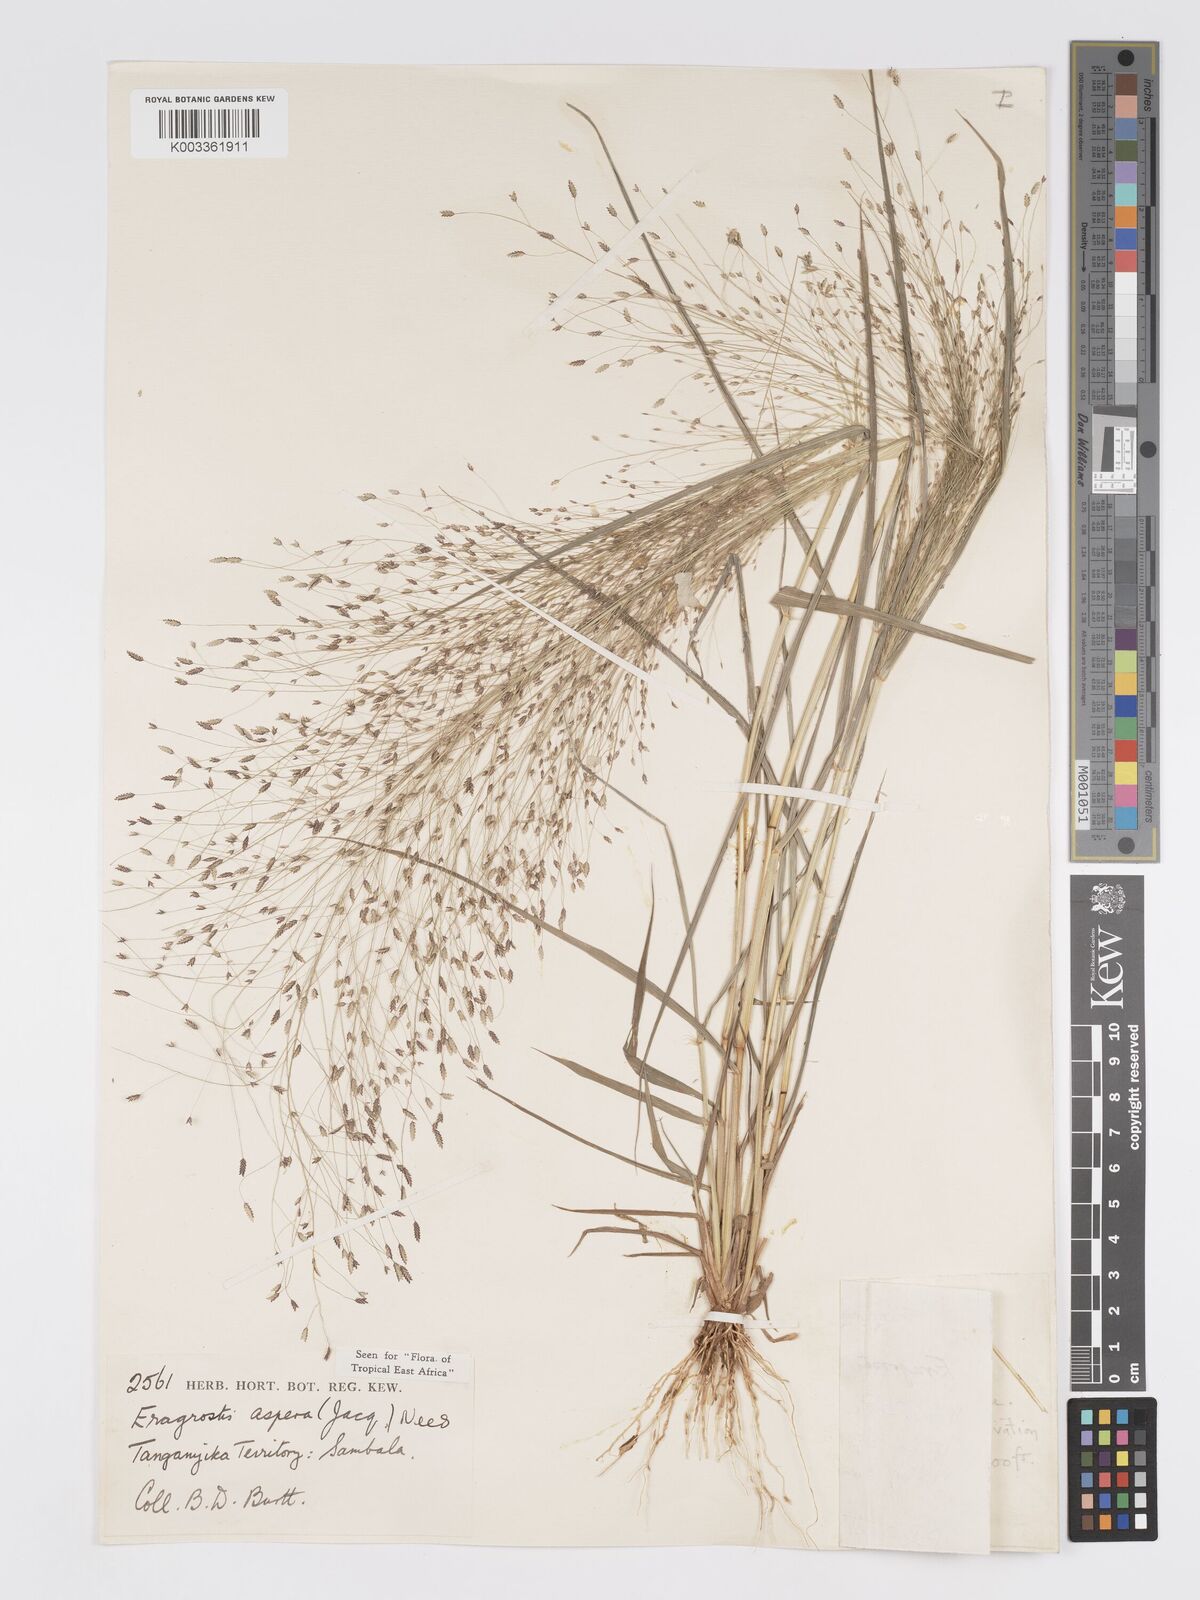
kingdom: Plantae
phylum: Tracheophyta
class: Liliopsida
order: Poales
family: Poaceae
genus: Eragrostis
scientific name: Eragrostis aspera
